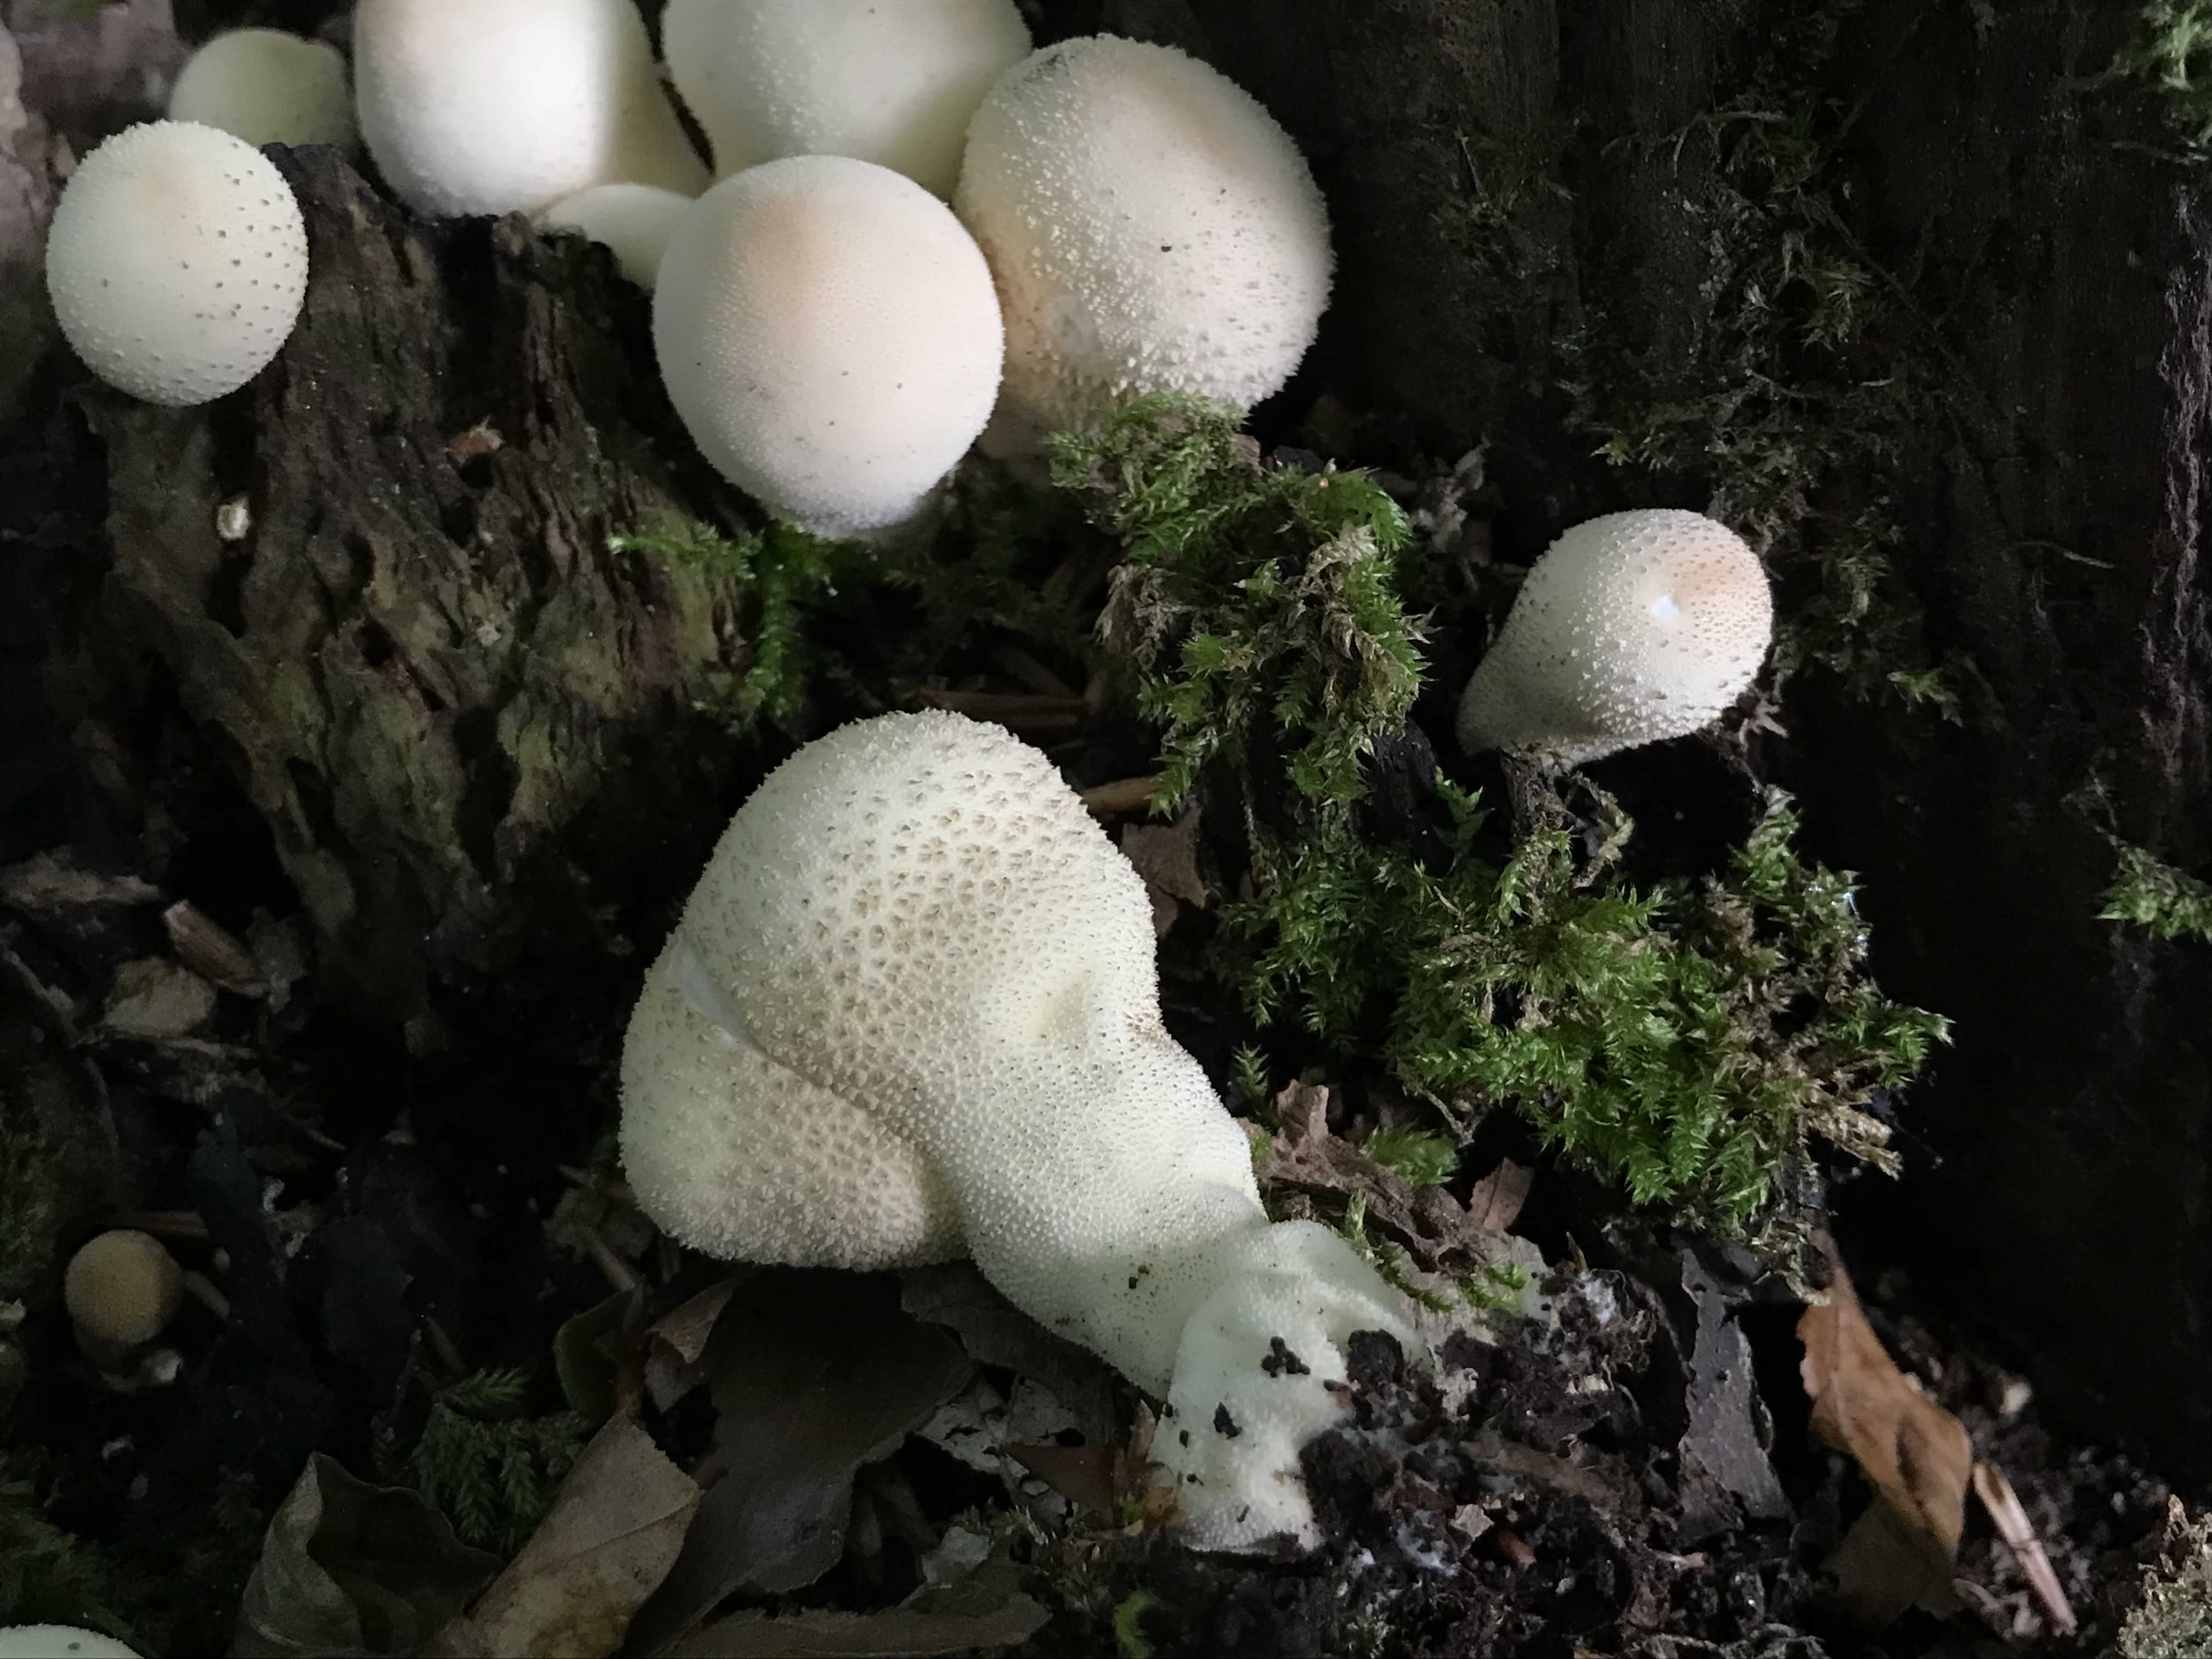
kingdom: Fungi
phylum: Basidiomycota
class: Agaricomycetes
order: Agaricales
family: Lycoperdaceae
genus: Lycoperdon
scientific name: Lycoperdon perlatum
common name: krystal-støvbold
